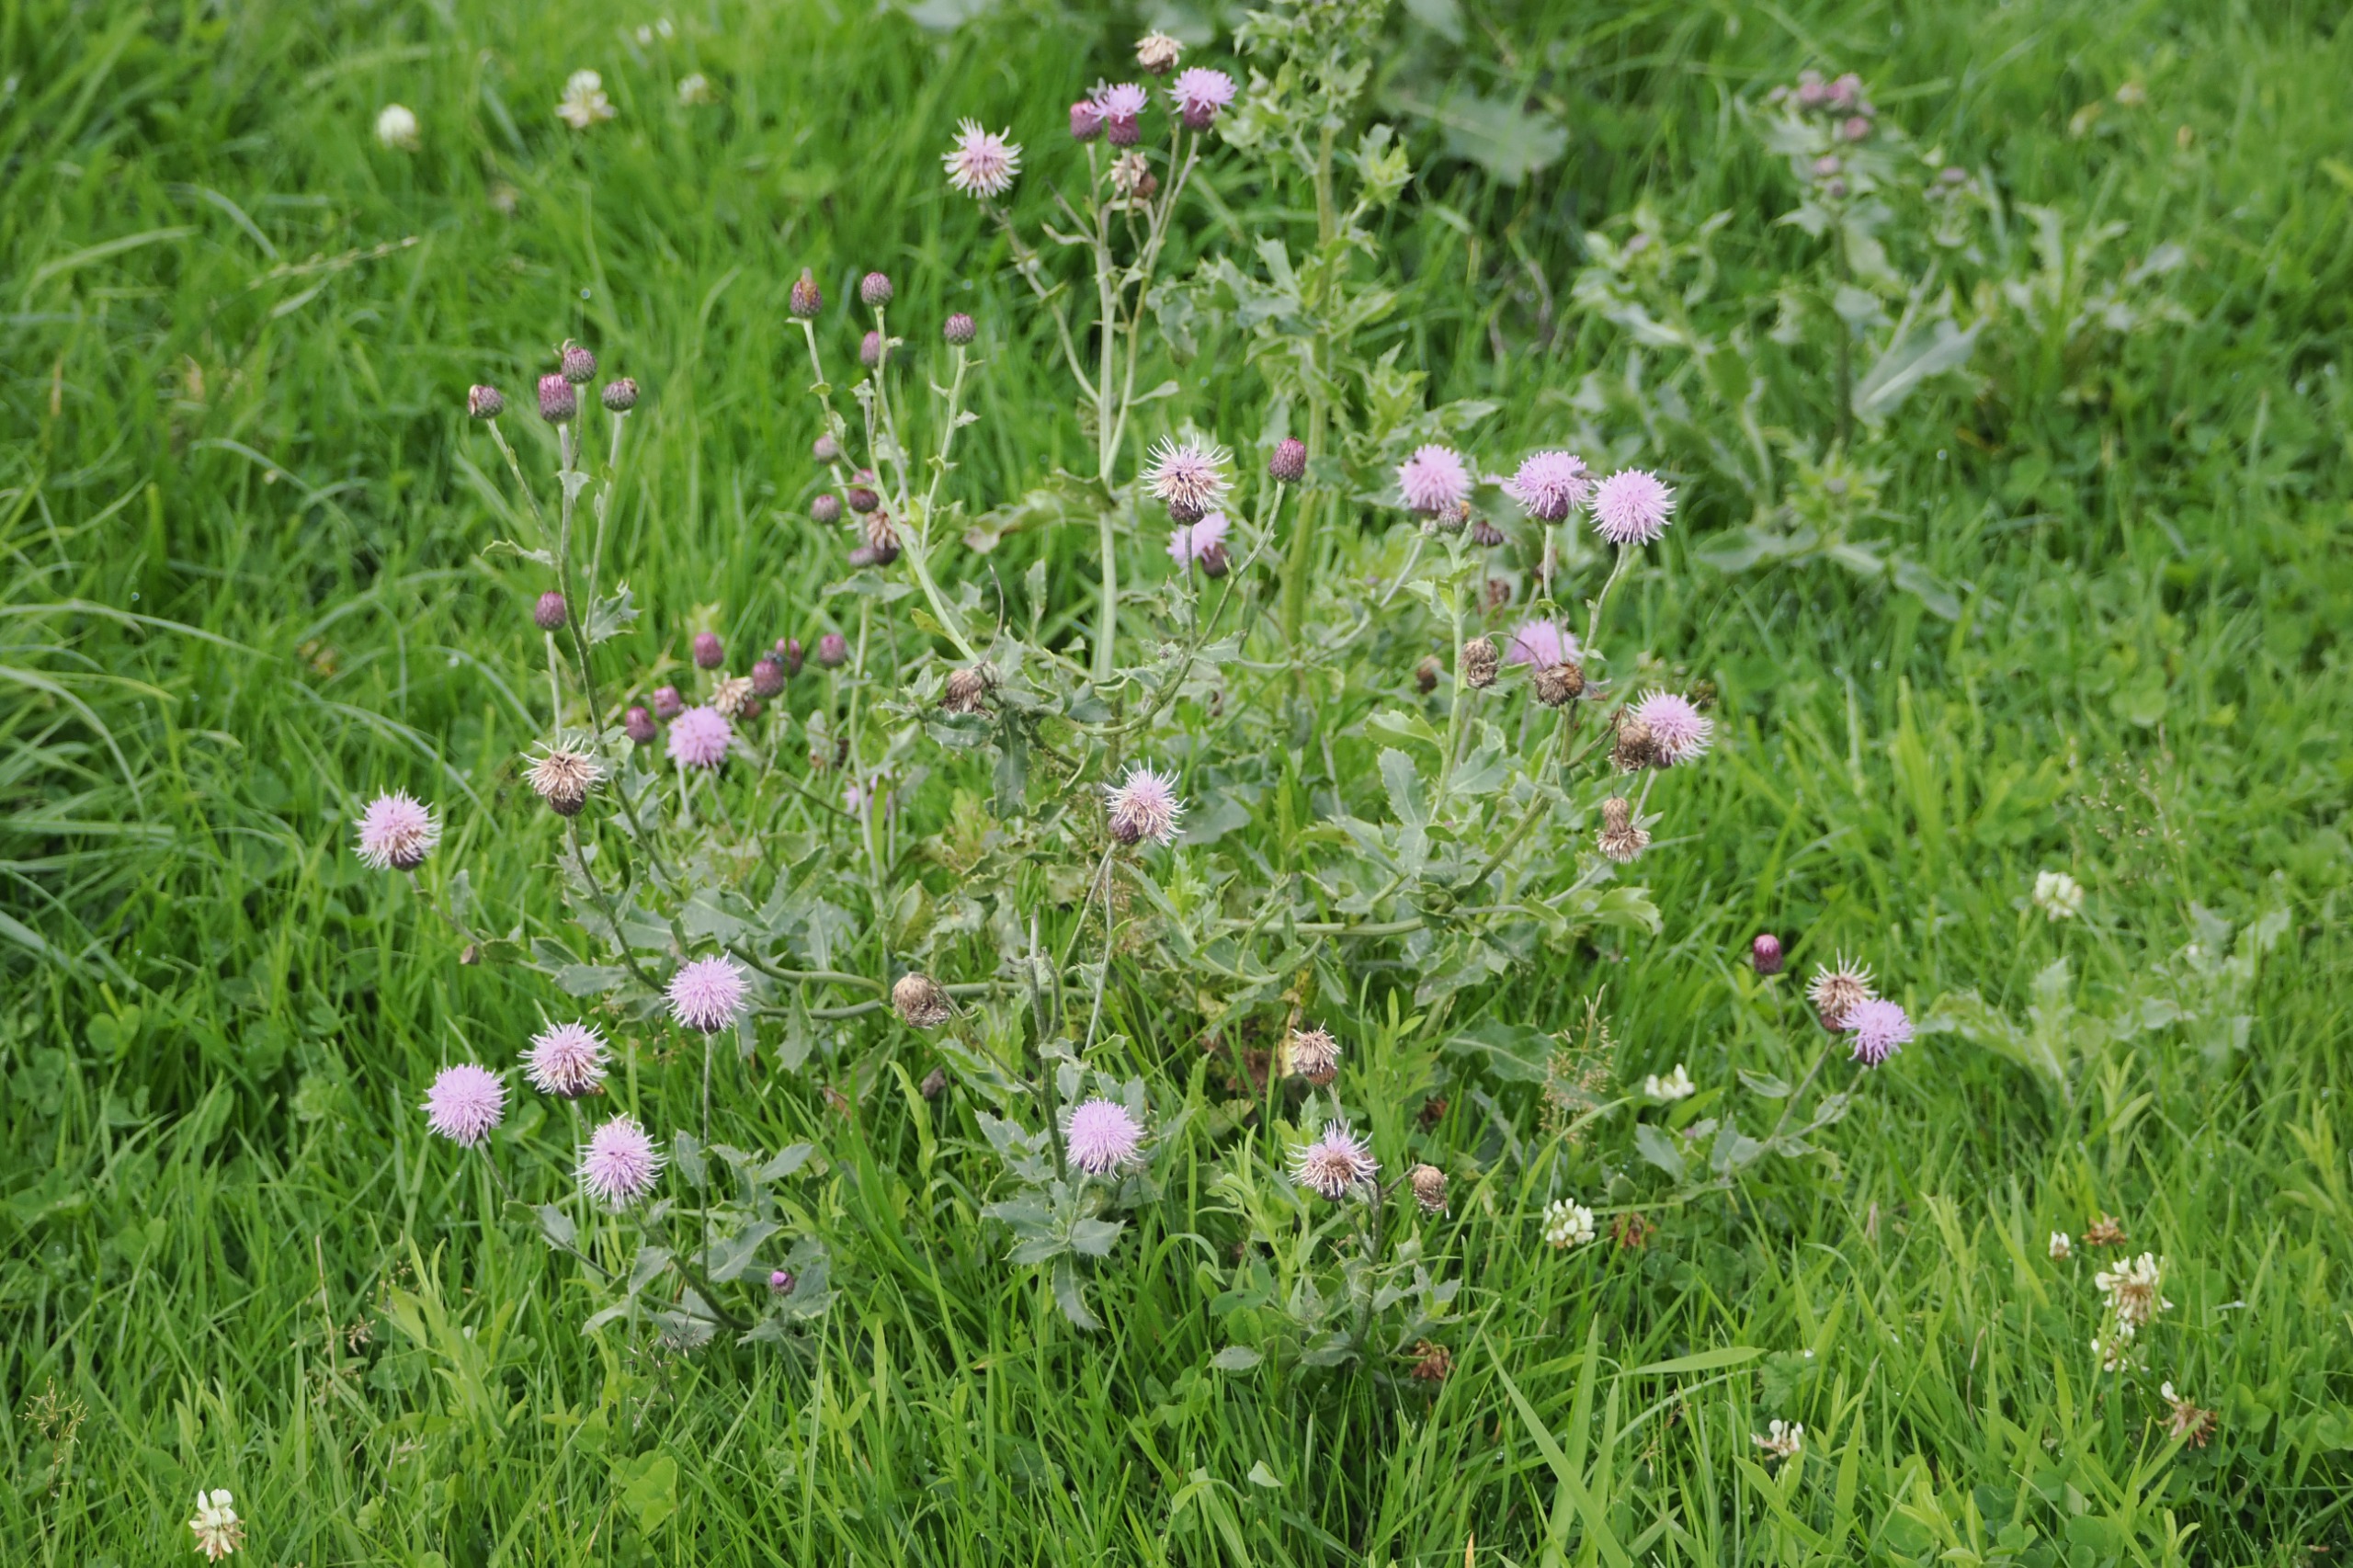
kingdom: Plantae
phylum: Tracheophyta
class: Magnoliopsida
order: Asterales
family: Asteraceae
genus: Cirsium
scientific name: Cirsium arvense
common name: Ager-tidsel
